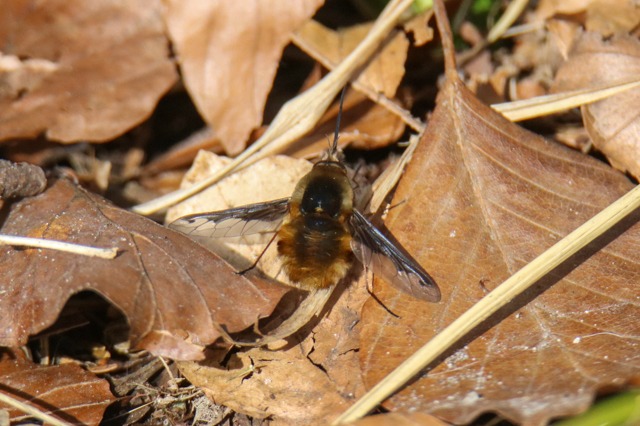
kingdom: Animalia
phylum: Arthropoda
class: Insecta
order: Diptera
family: Bombyliidae
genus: Bombylius
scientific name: Bombylius major
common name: Stor humleflue
